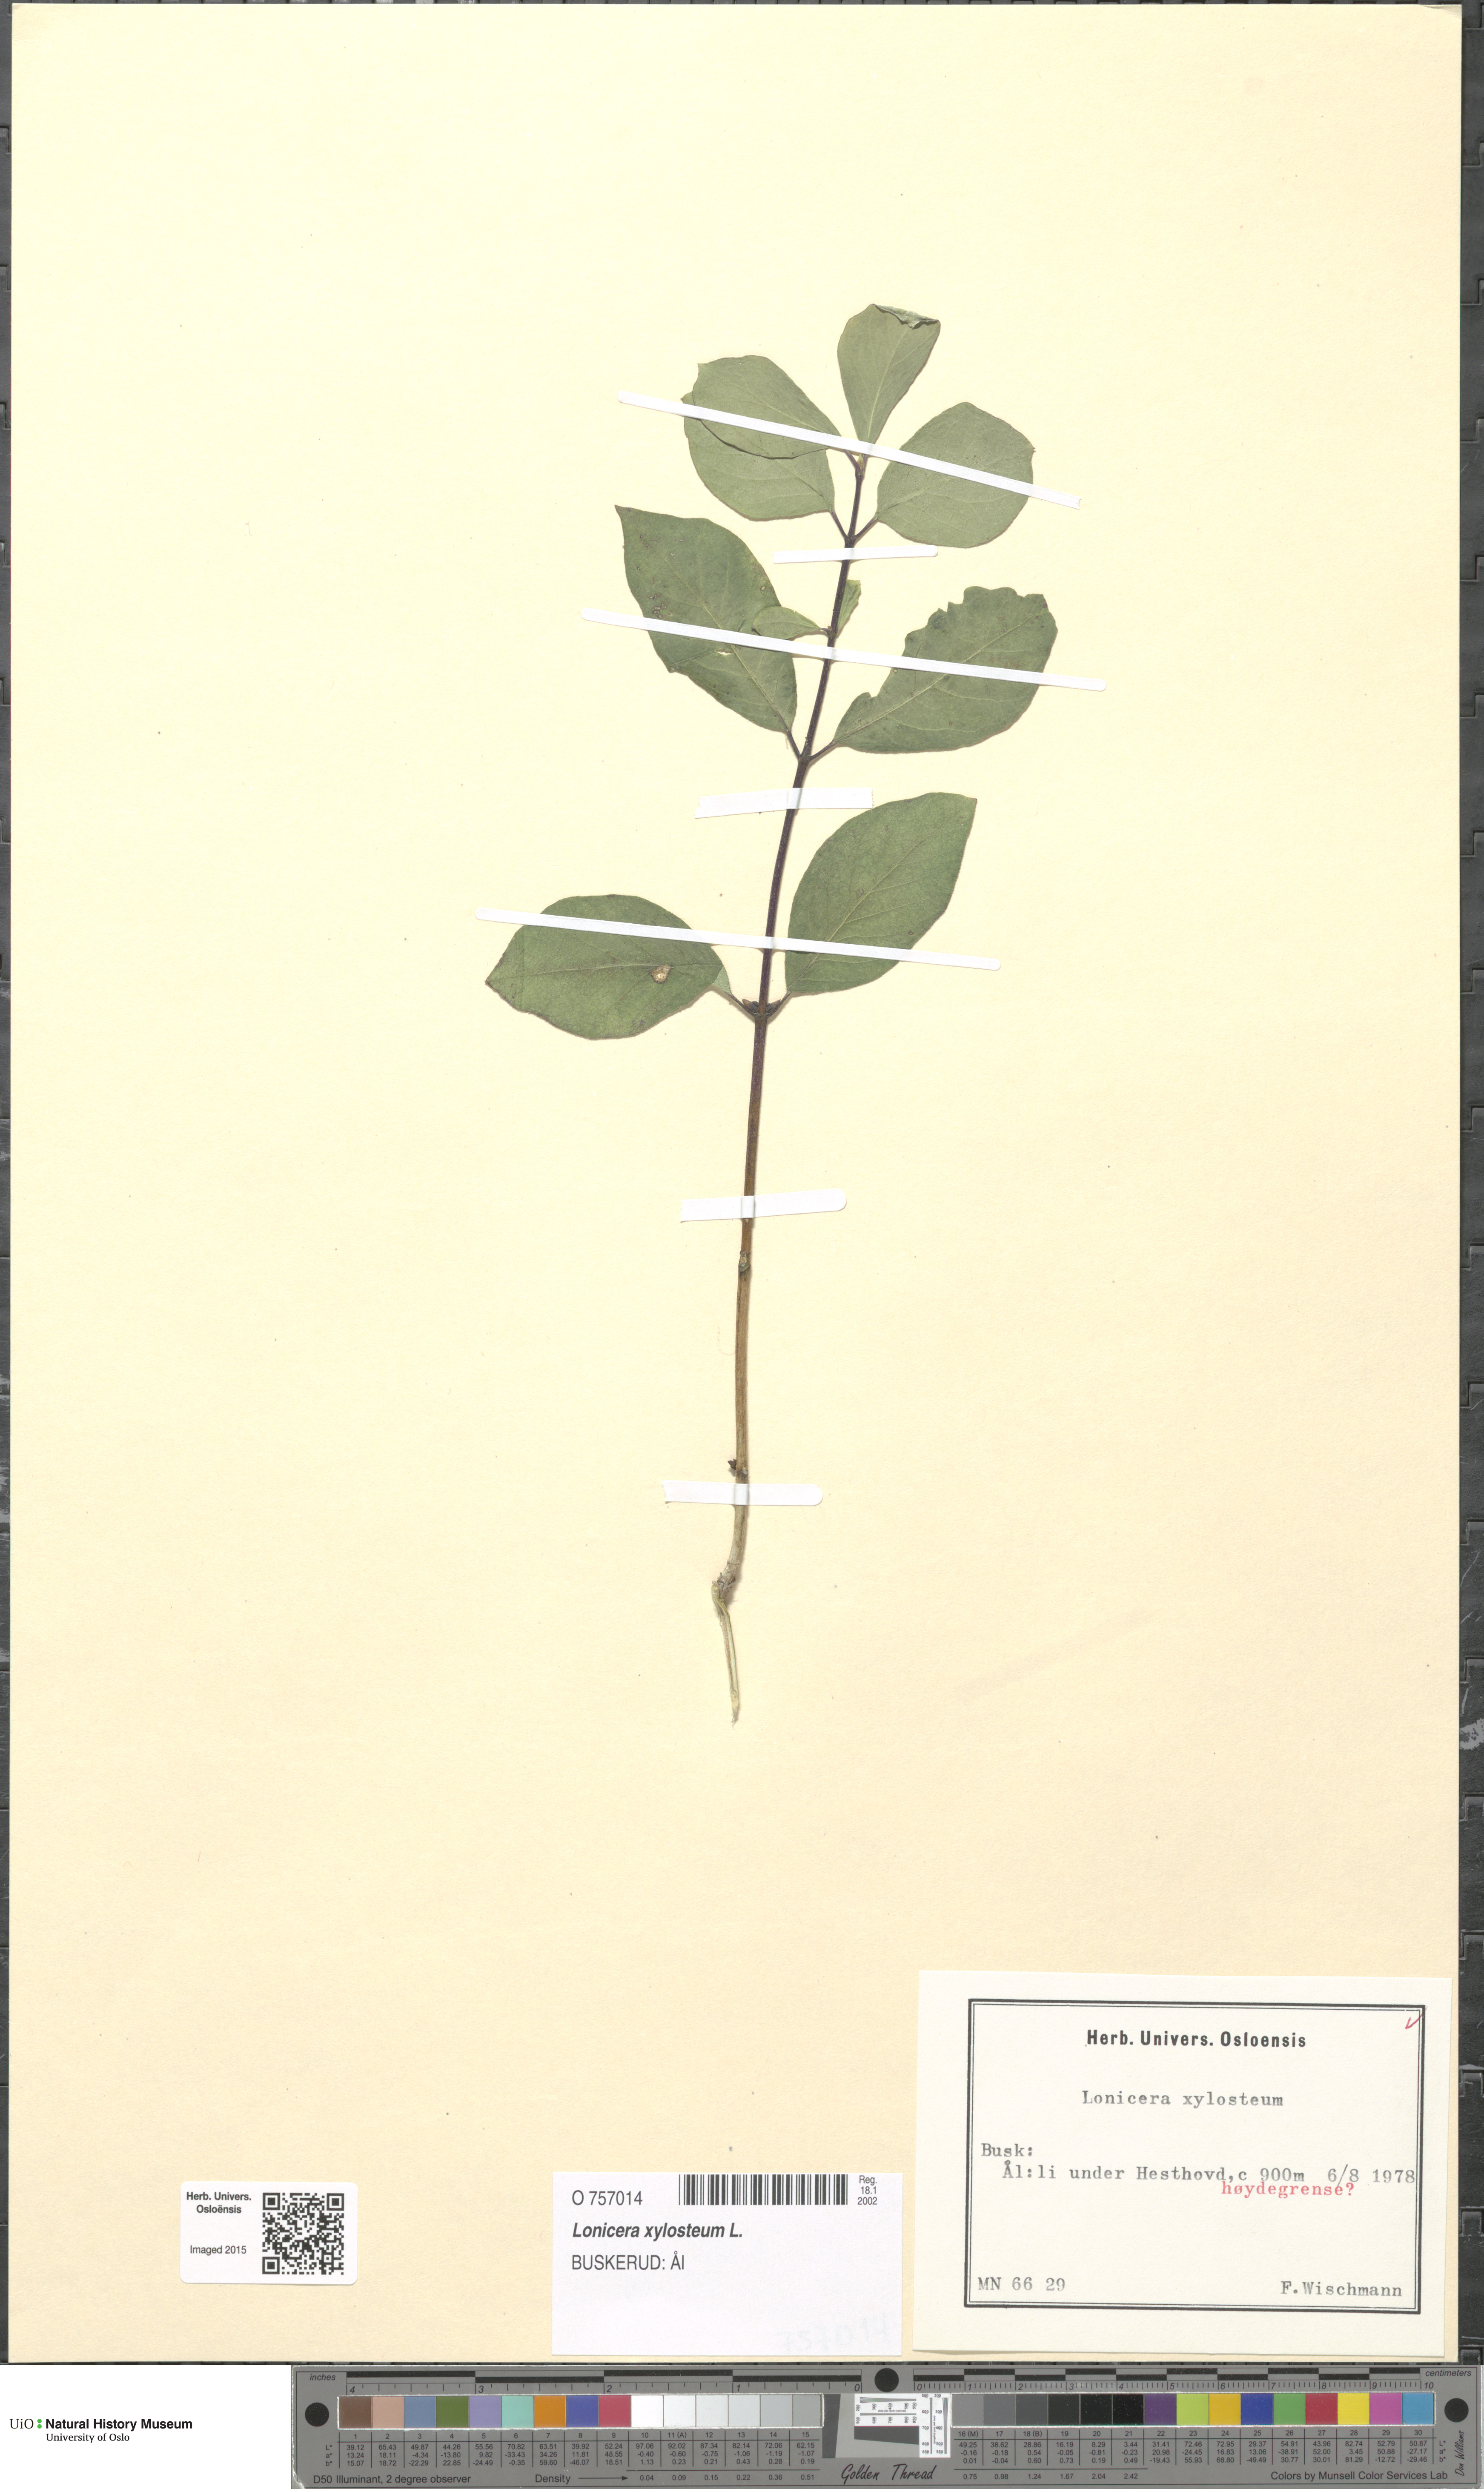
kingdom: Plantae
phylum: Tracheophyta
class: Magnoliopsida
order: Dipsacales
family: Caprifoliaceae
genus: Lonicera
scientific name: Lonicera xylosteum
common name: Fly honeysuckle
